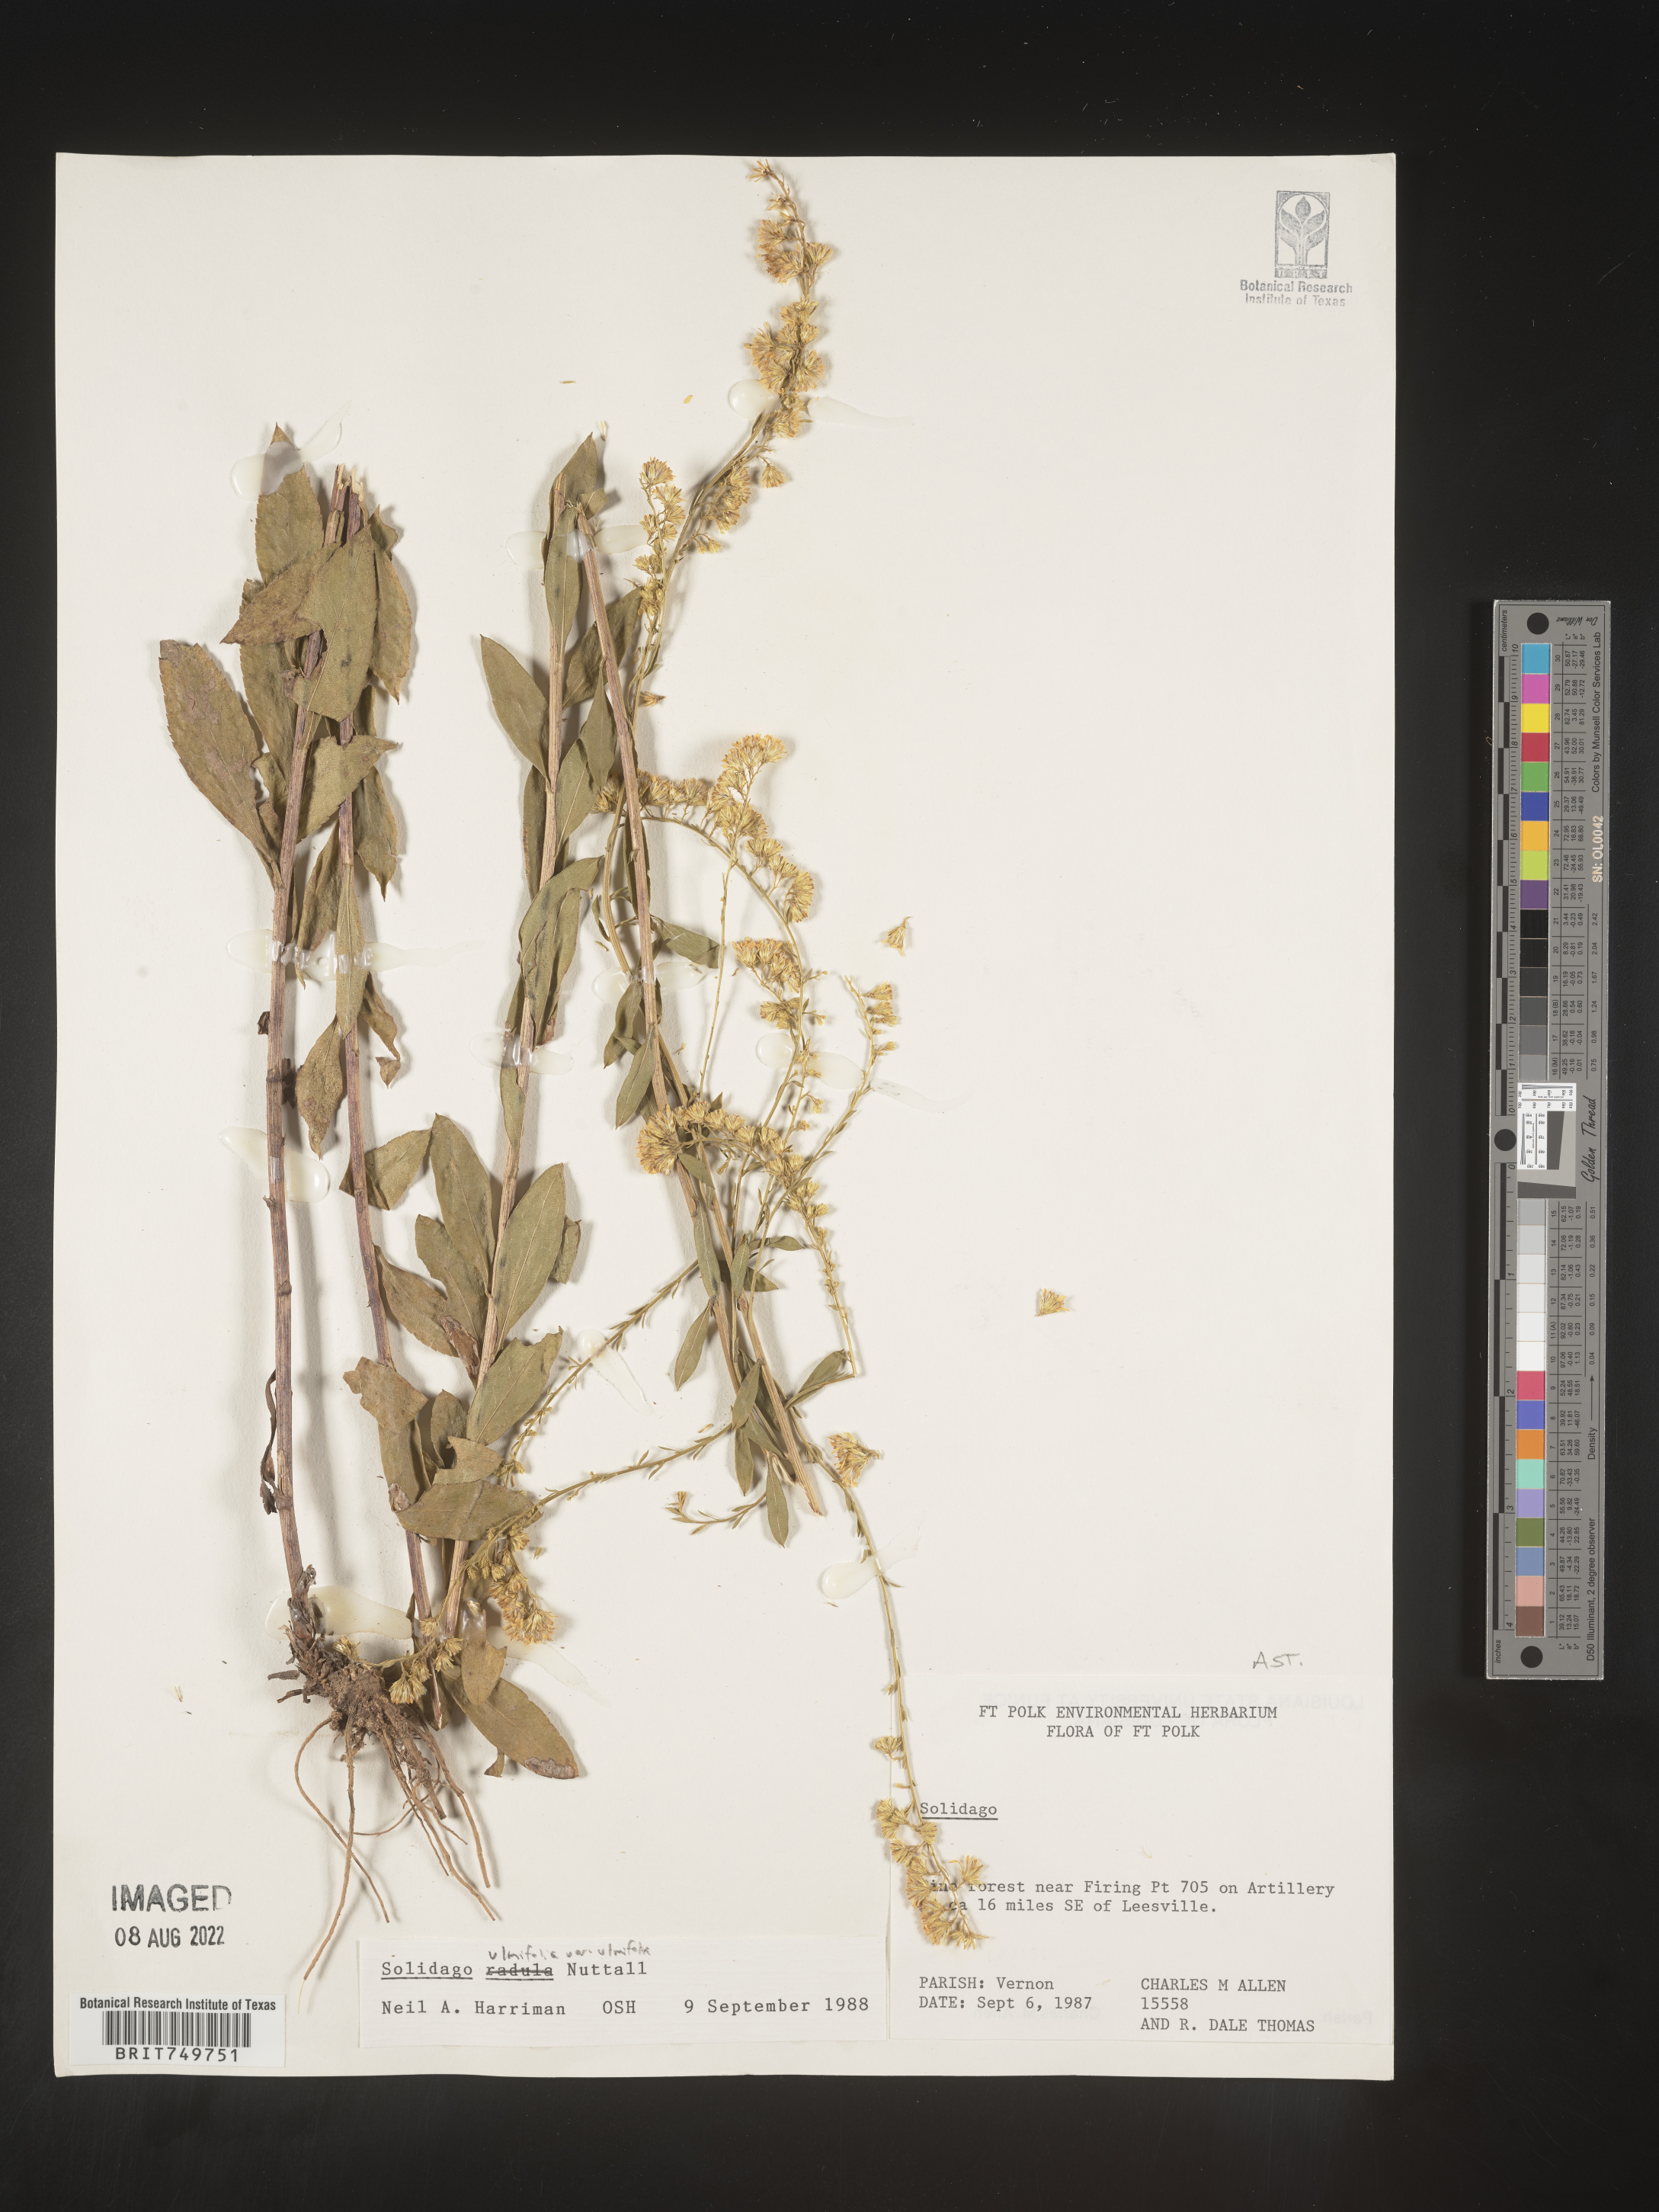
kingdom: Plantae
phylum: Tracheophyta
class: Magnoliopsida
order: Asterales
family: Asteraceae
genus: Solidago
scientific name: Solidago ulmifolia
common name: Elm-leaf goldenrod
